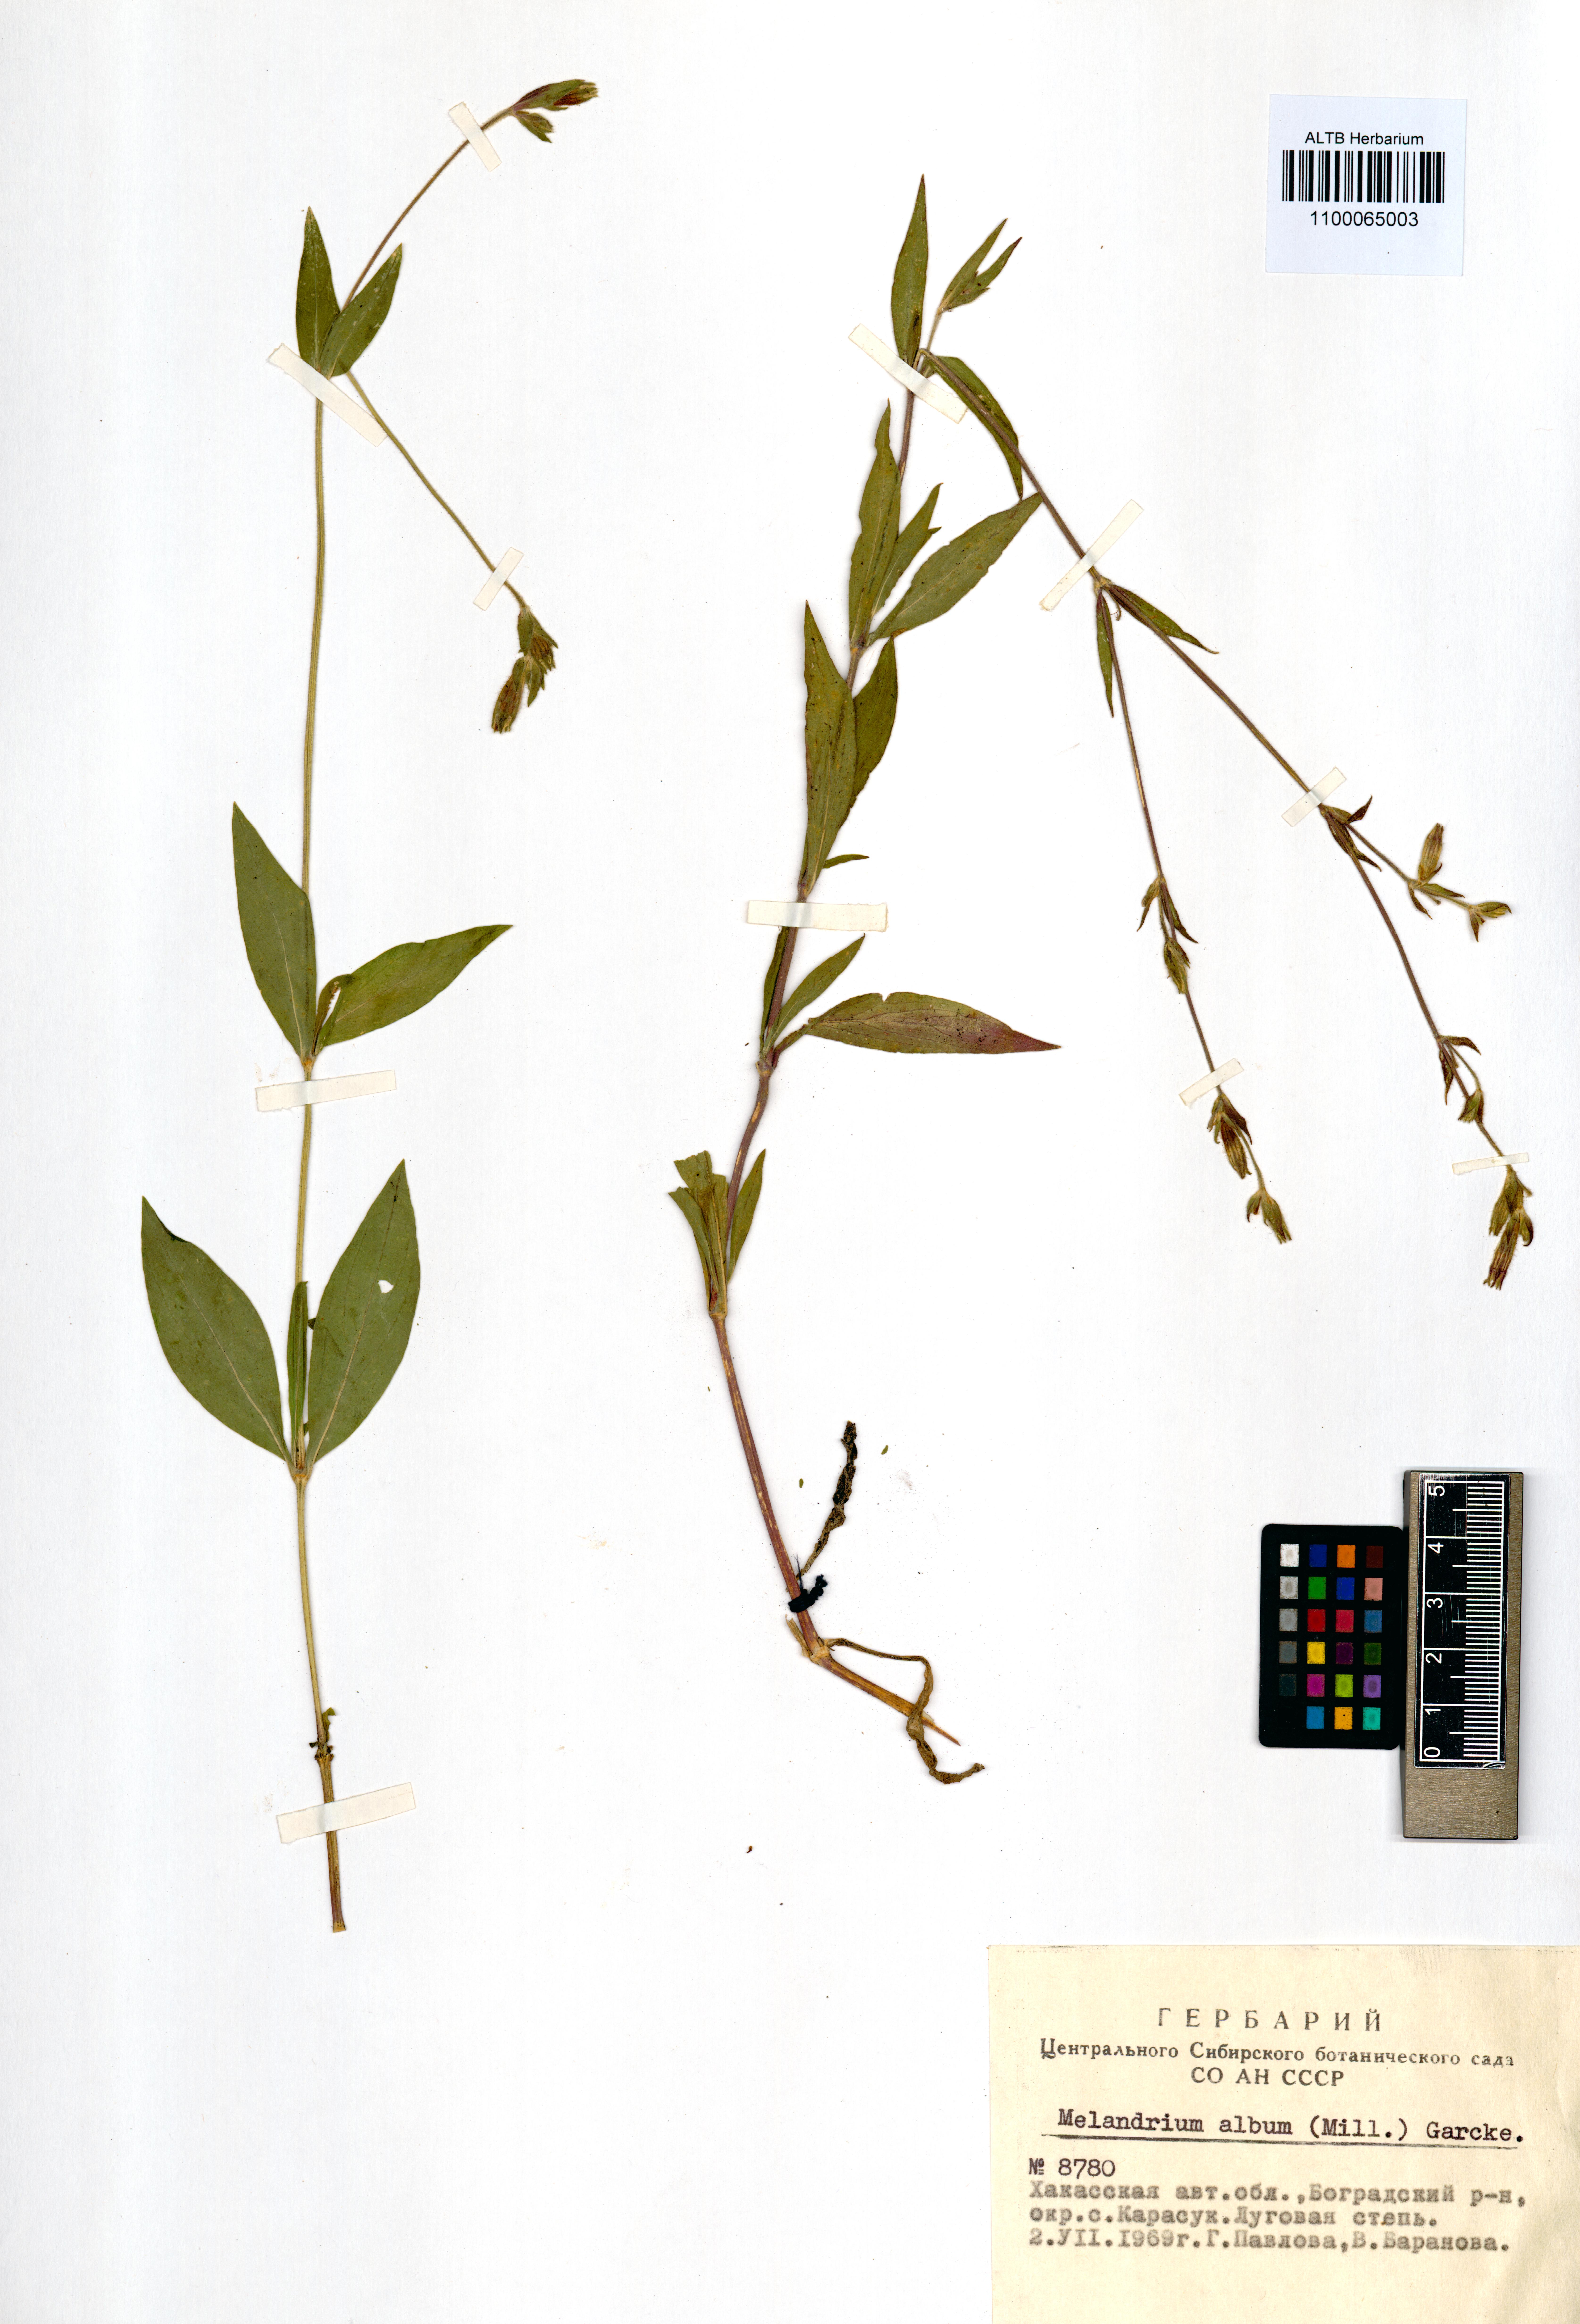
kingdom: Plantae
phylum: Tracheophyta
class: Magnoliopsida
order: Caryophyllales
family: Caryophyllaceae
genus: Silene
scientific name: Silene latifolia
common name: White campion
